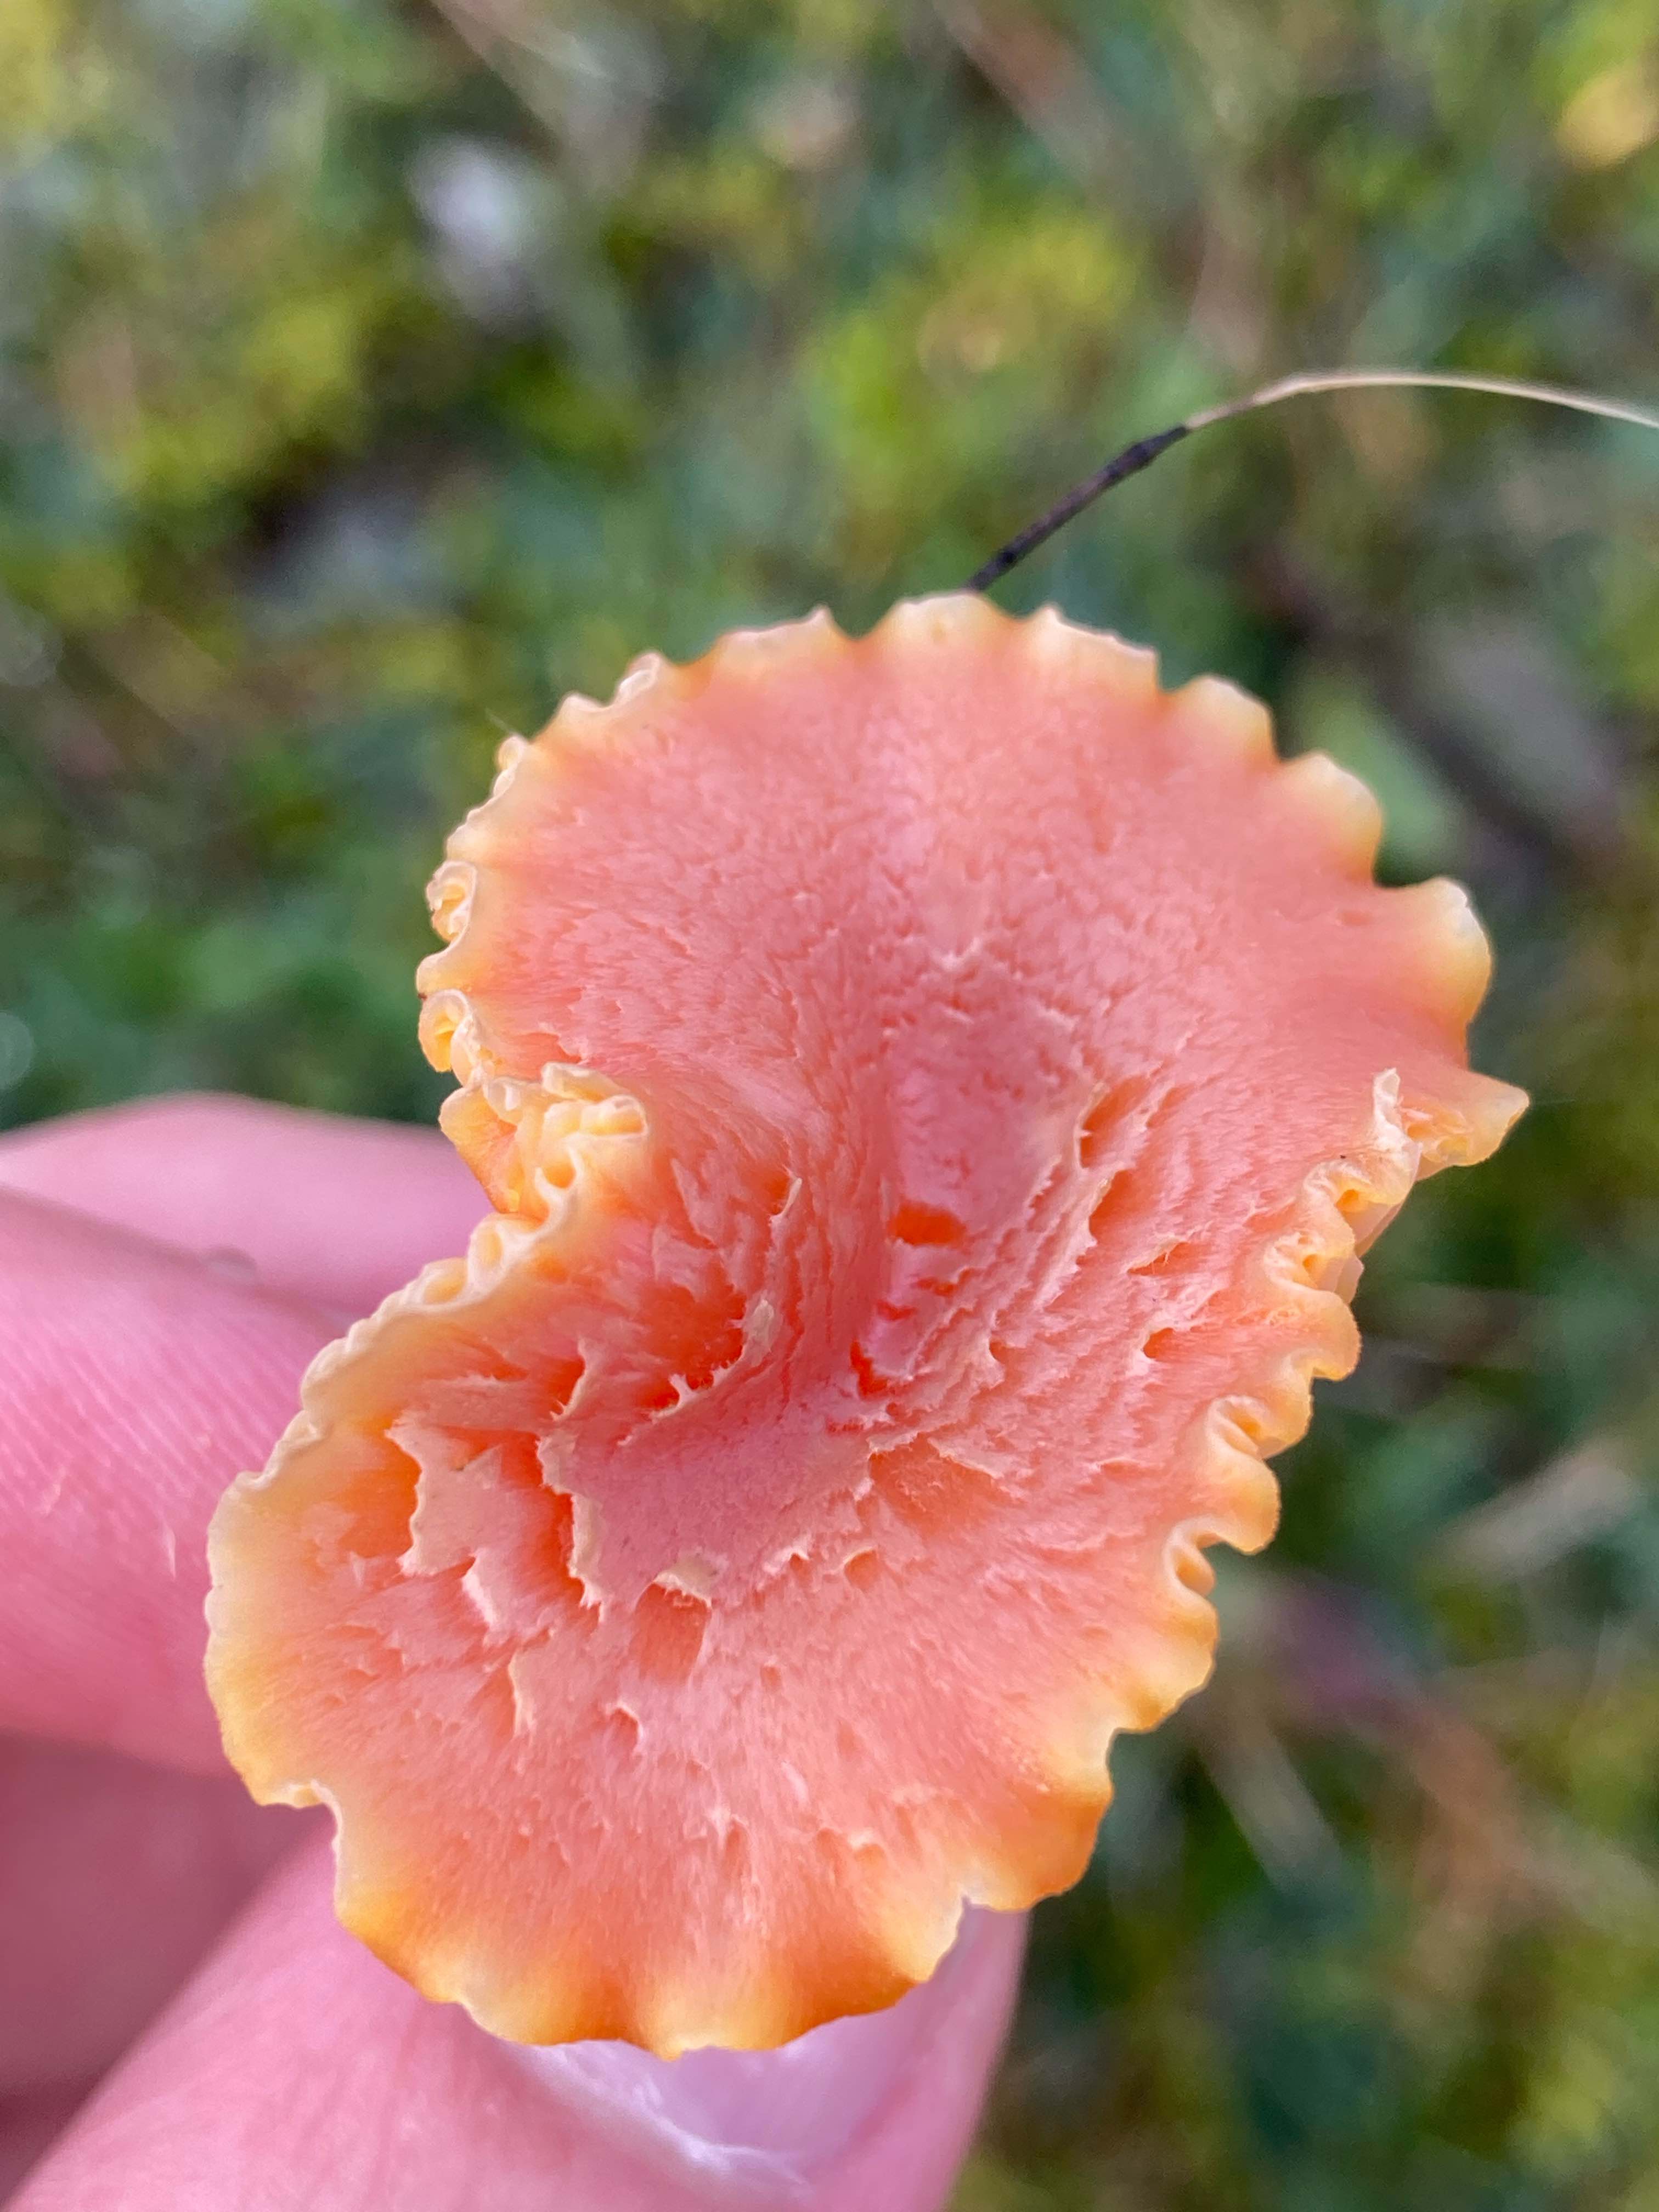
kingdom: Fungi
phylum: Basidiomycota
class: Agaricomycetes
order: Agaricales
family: Hygrophoraceae
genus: Hygrocybe
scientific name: Hygrocybe reidii
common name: honning-vokshat
